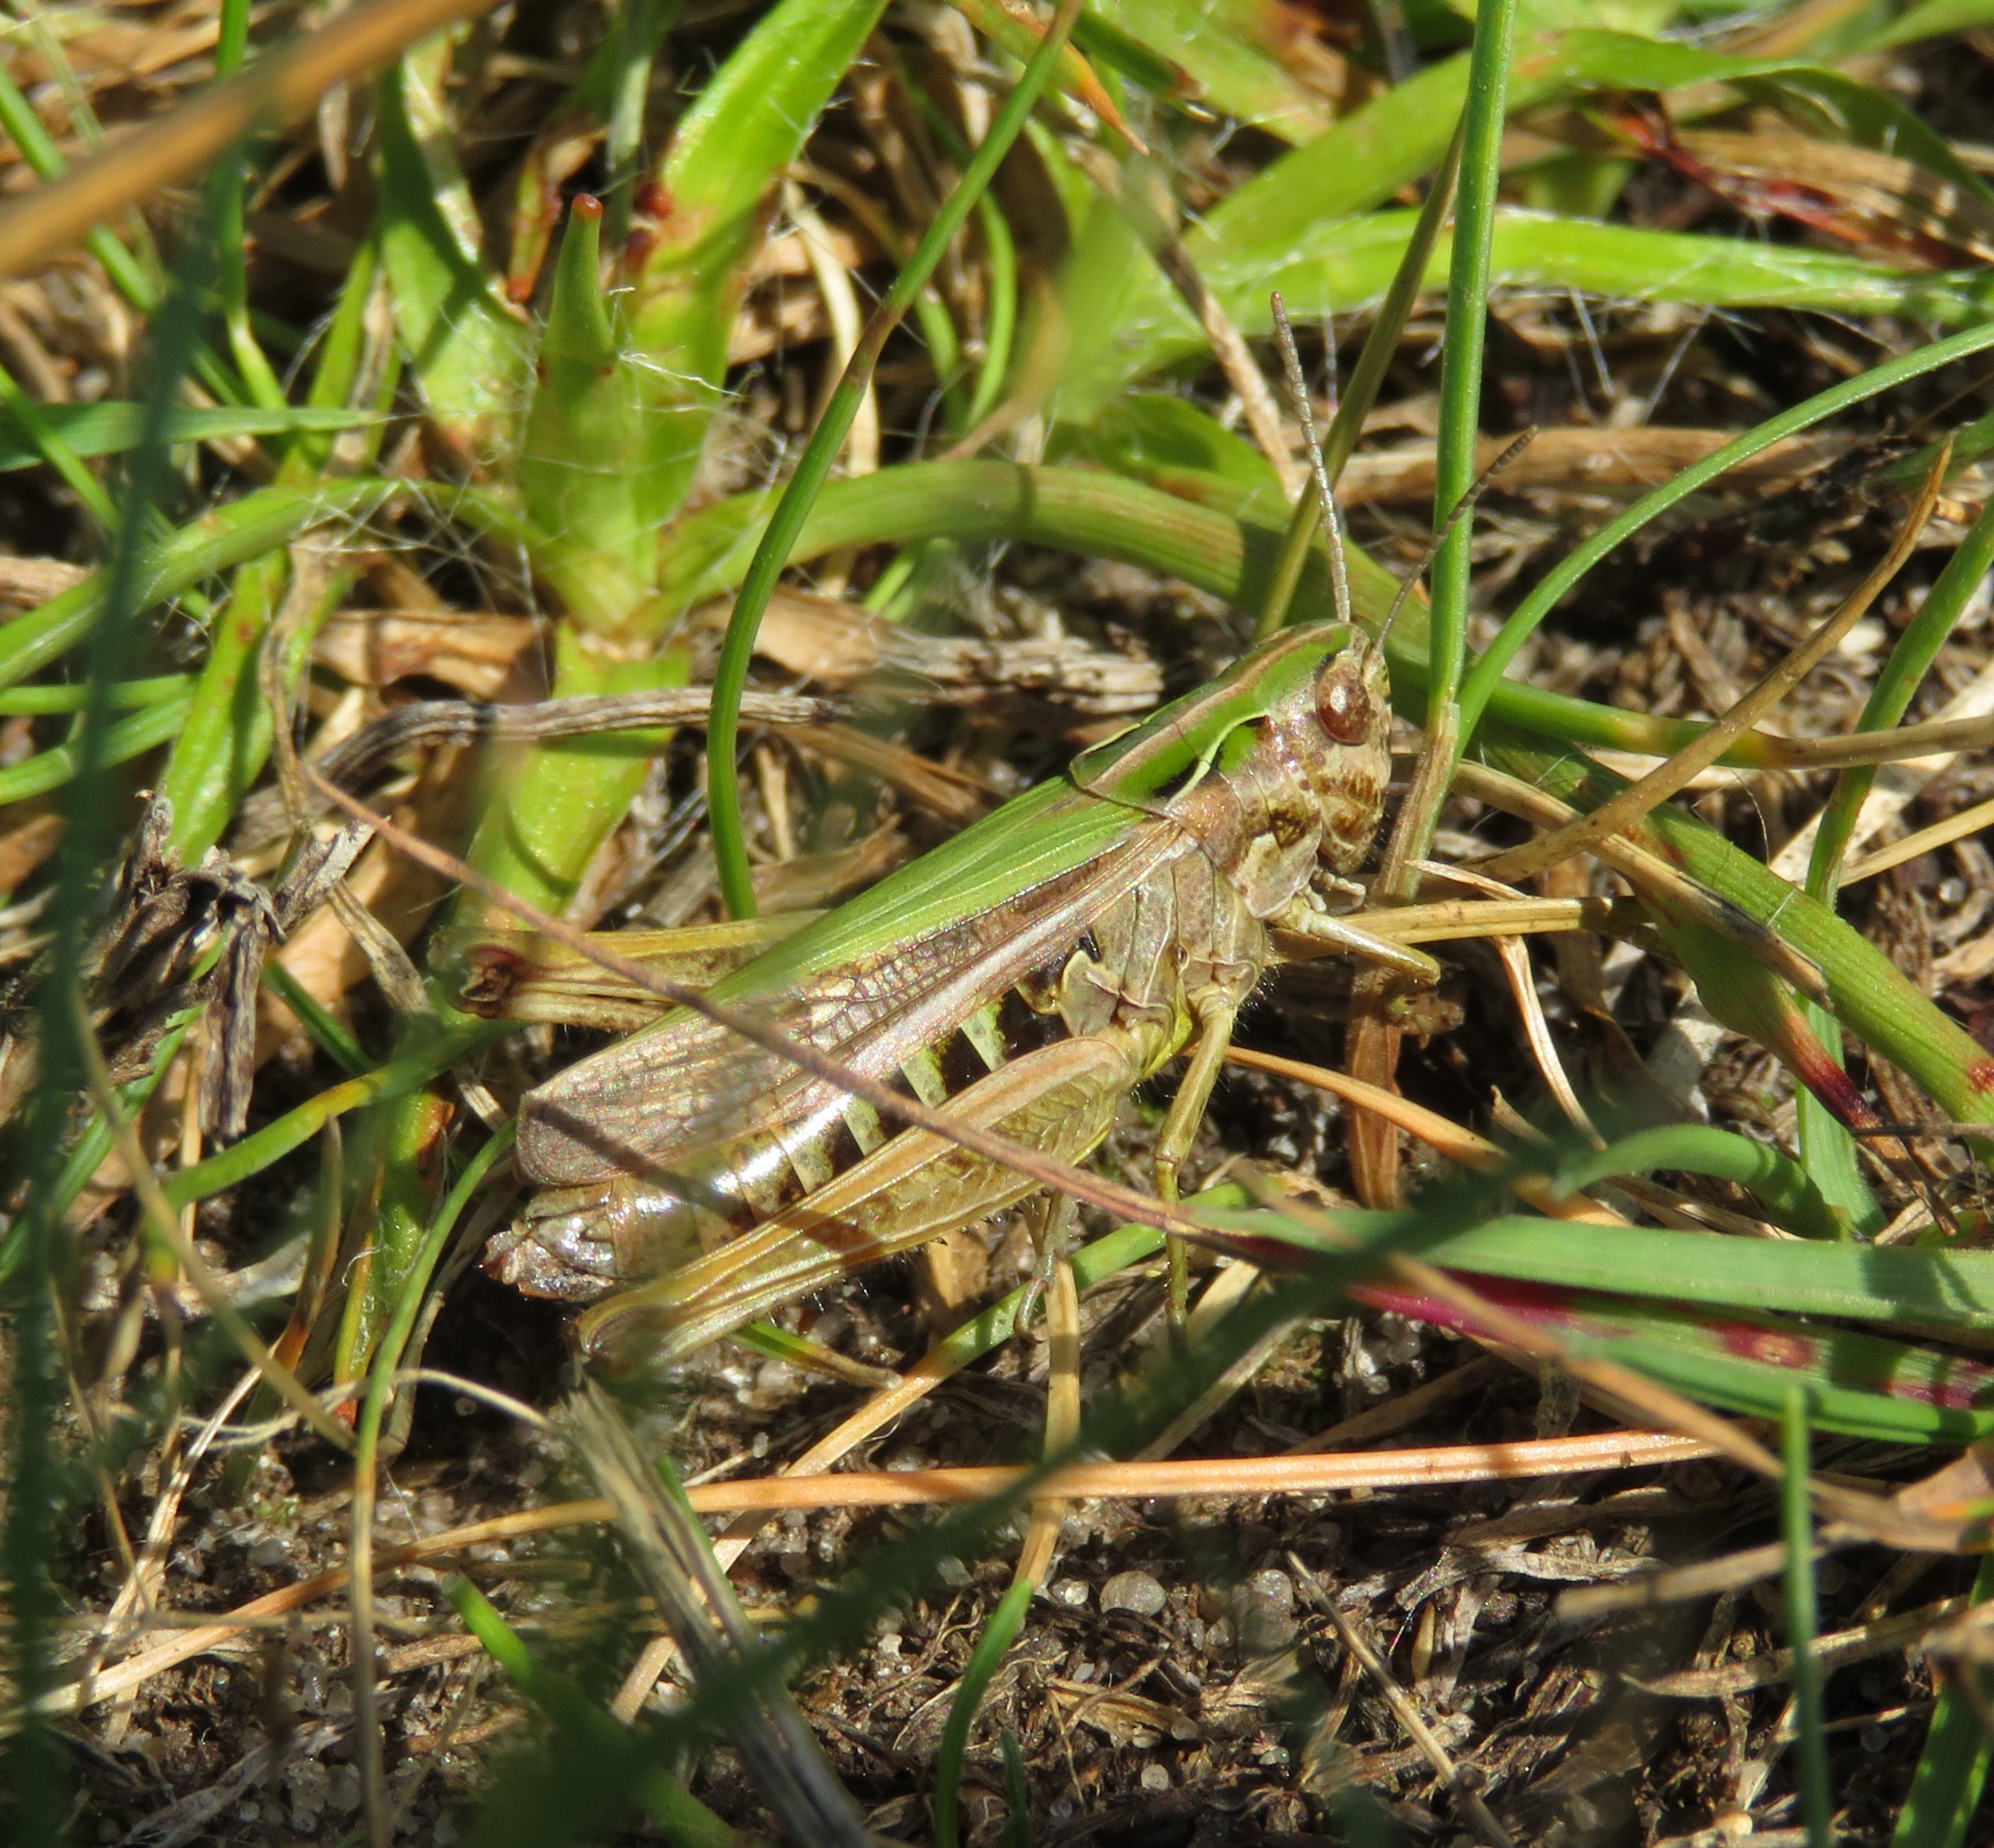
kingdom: Animalia
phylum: Arthropoda
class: Insecta
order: Orthoptera
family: Acrididae
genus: Omocestus
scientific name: Omocestus viridulus
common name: Lynggræshoppe
